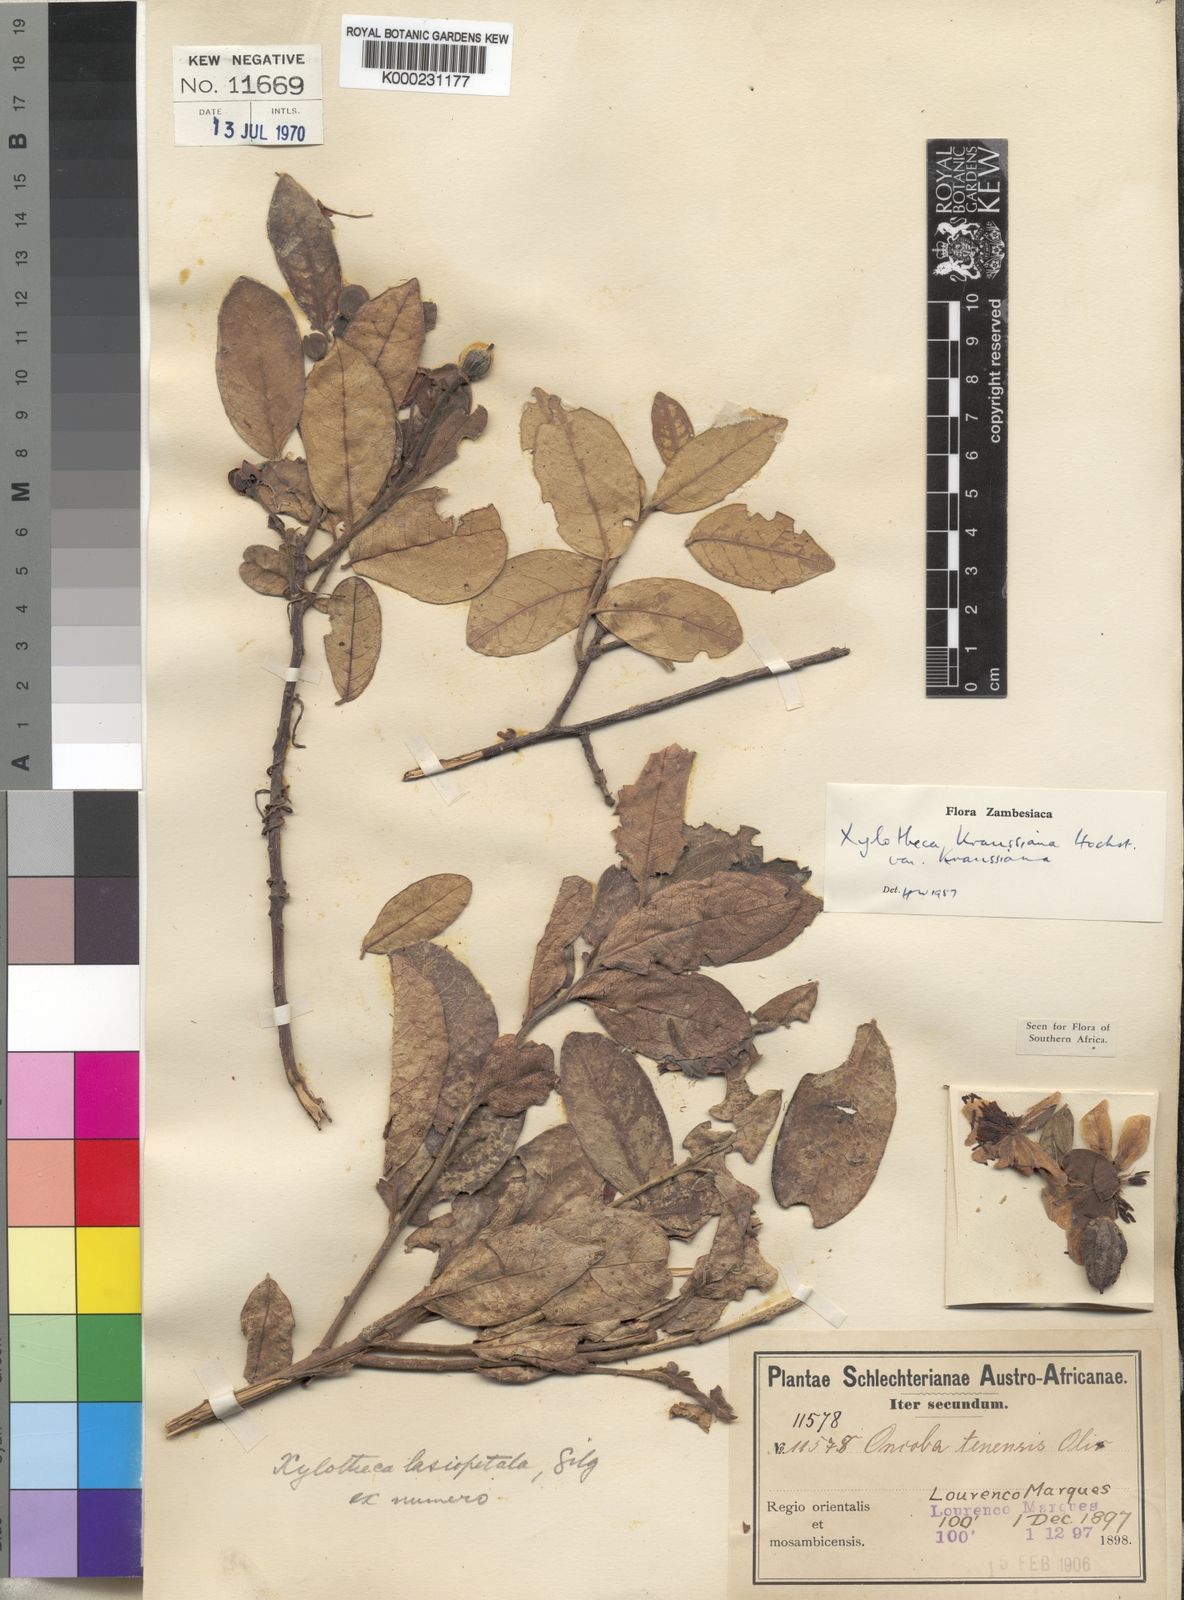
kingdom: Plantae
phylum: Tracheophyta
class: Magnoliopsida
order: Malpighiales
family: Achariaceae
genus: Xylotheca
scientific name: Xylotheca kraussiana
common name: African dog rose
